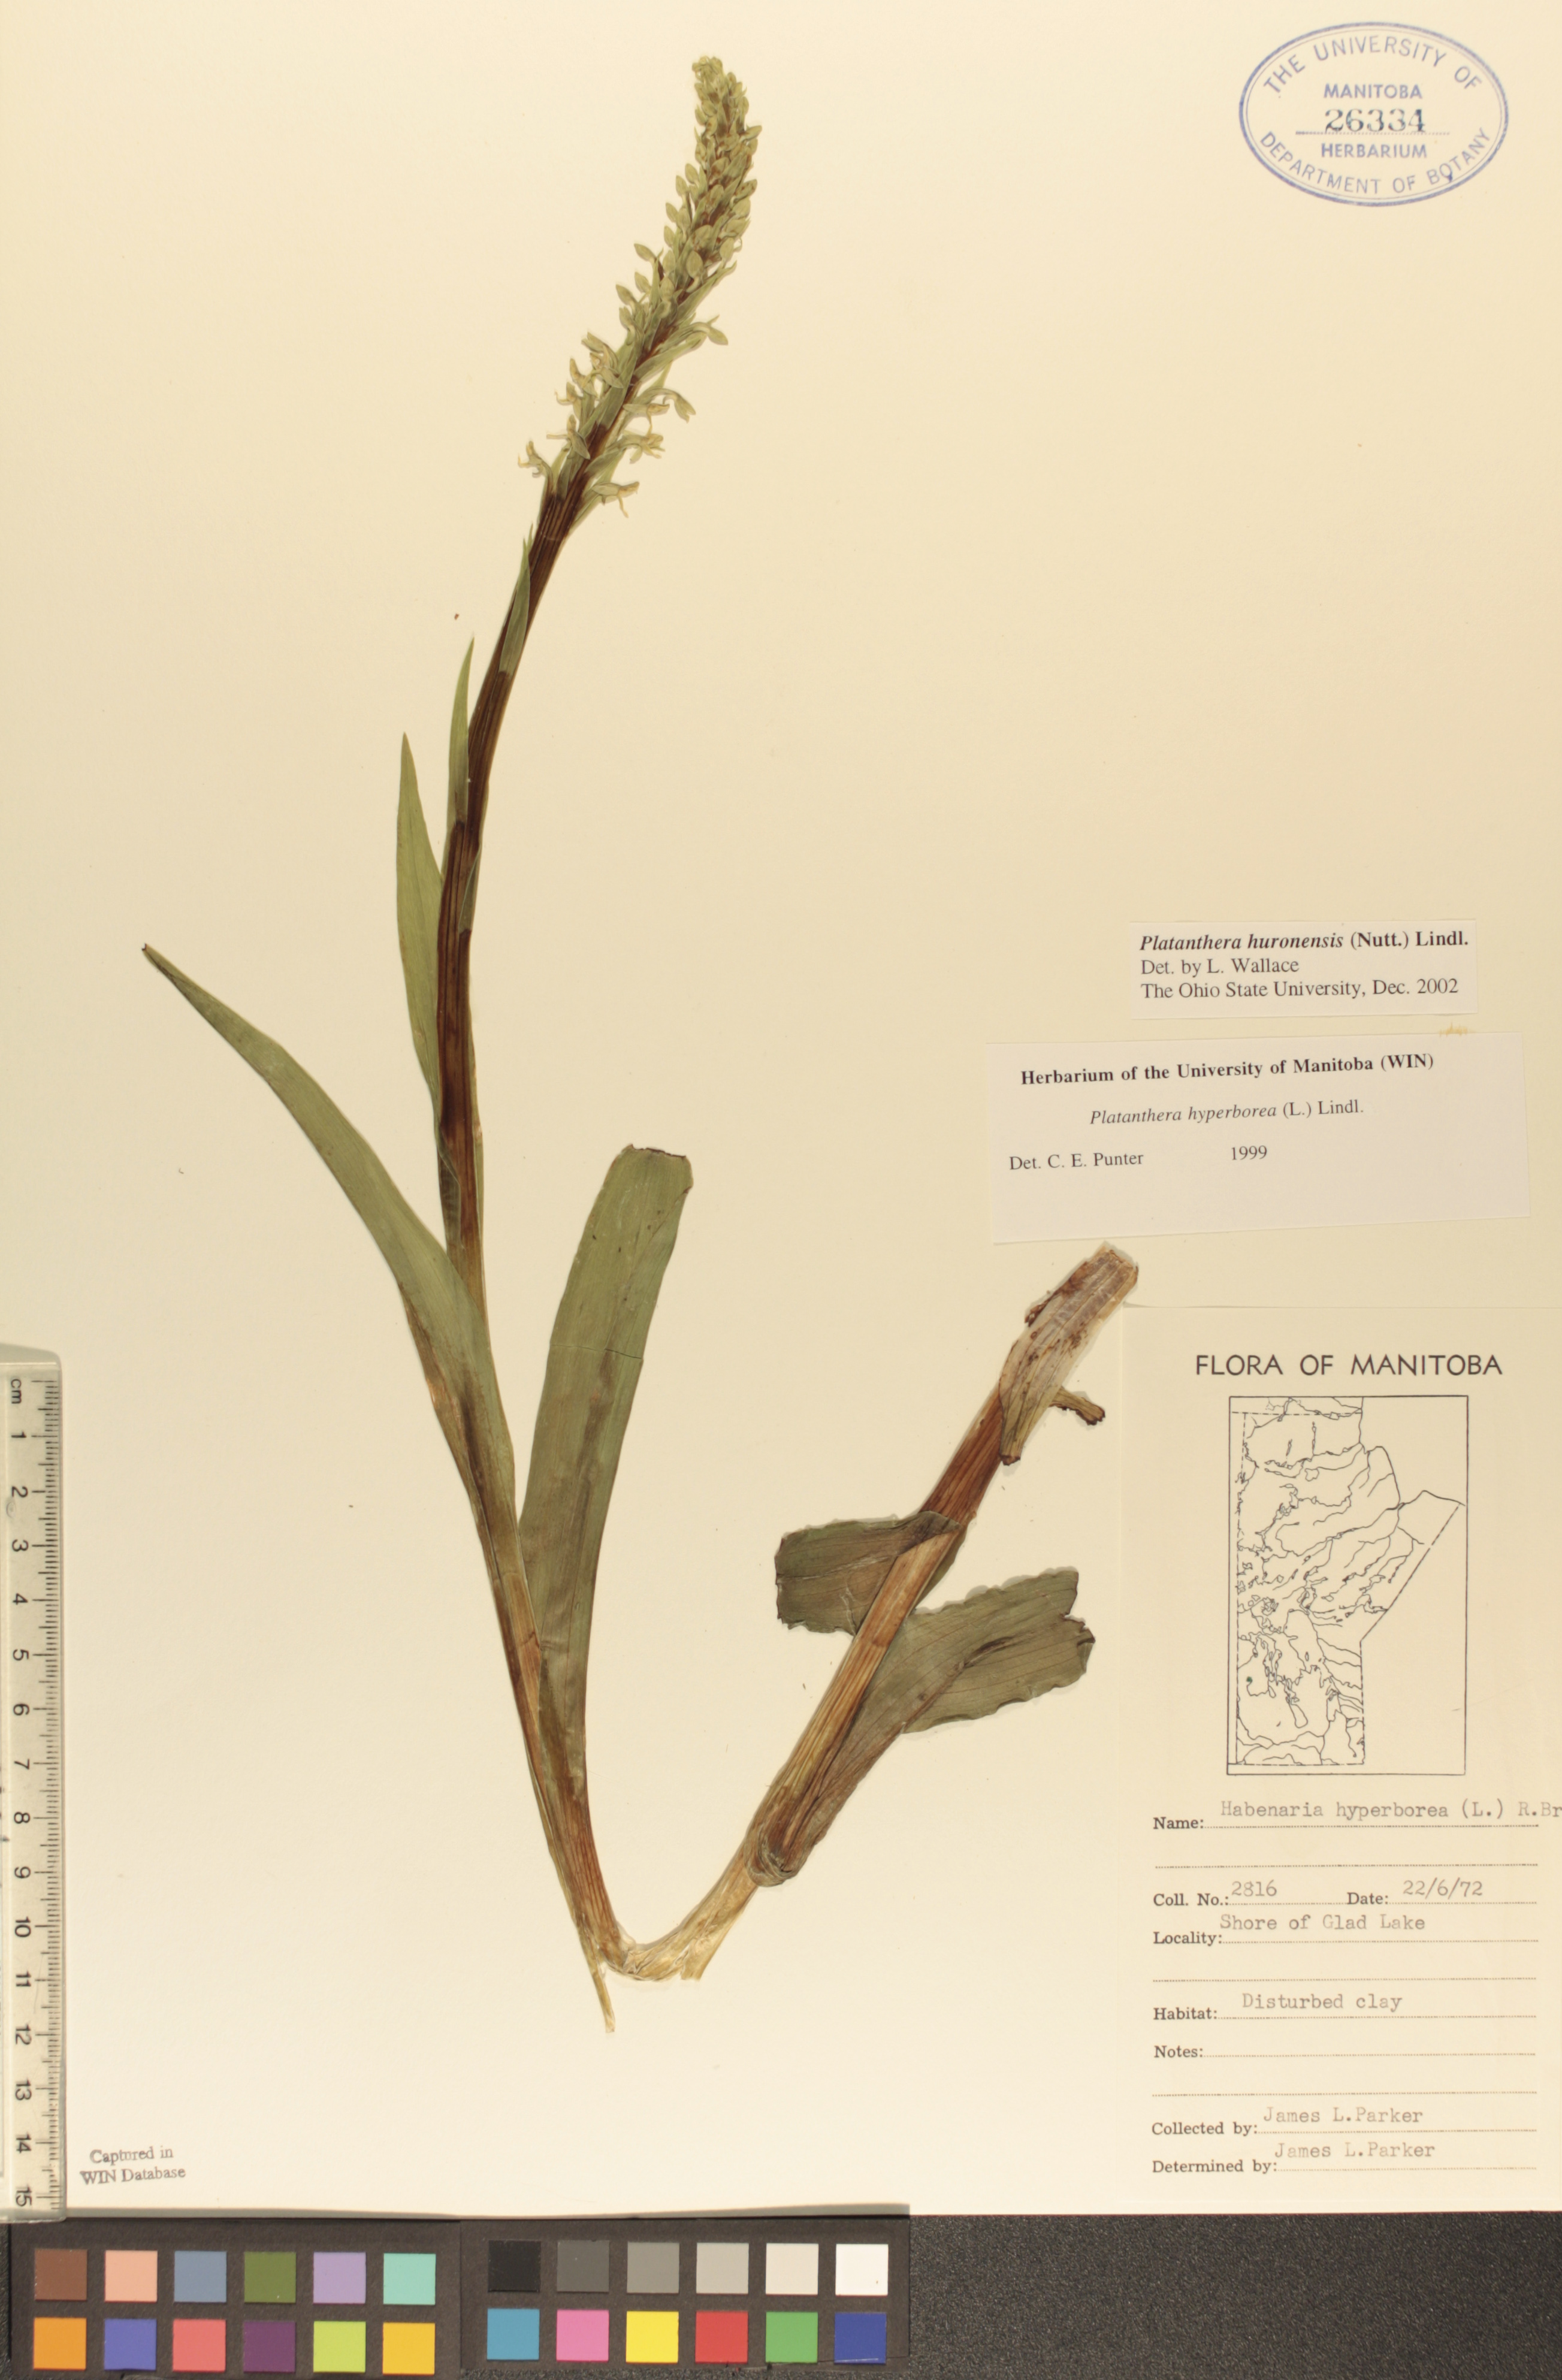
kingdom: Plantae
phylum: Tracheophyta
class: Liliopsida
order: Asparagales
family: Orchidaceae
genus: Platanthera
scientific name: Platanthera huronensis
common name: Fragrant green orchid
